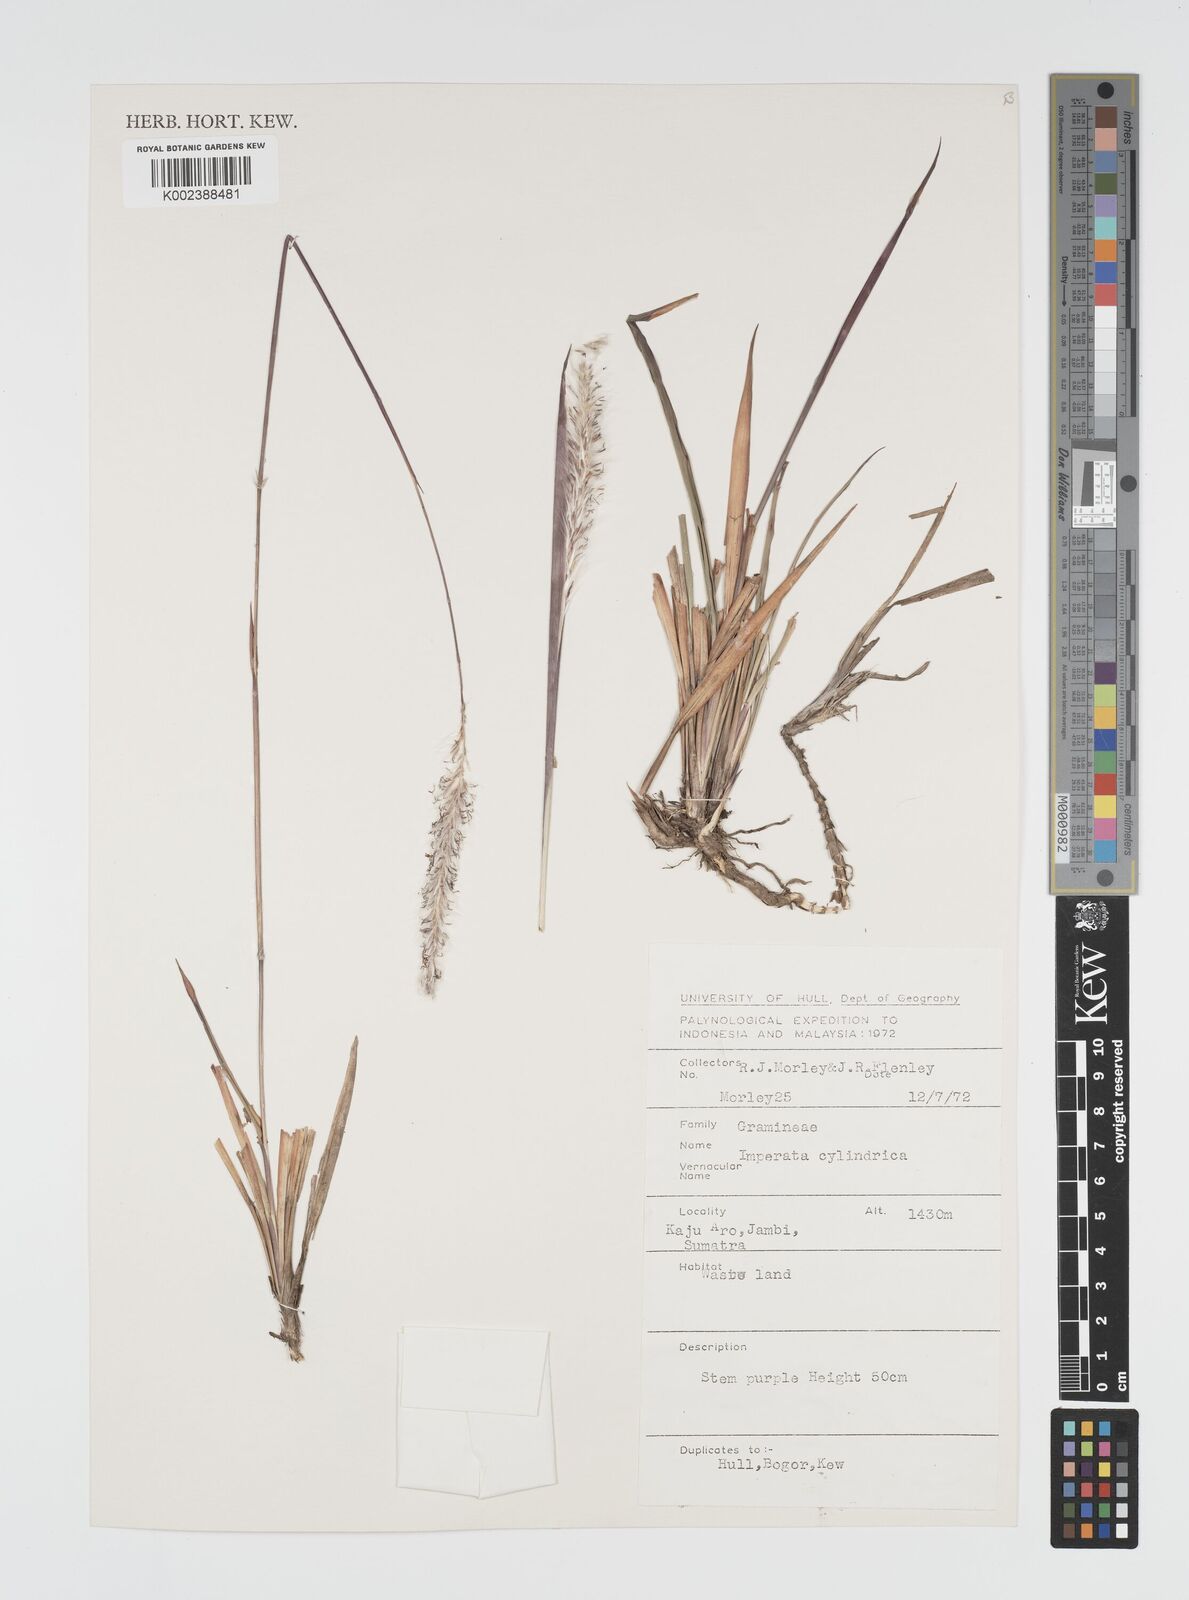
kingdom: Plantae
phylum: Tracheophyta
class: Liliopsida
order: Poales
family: Poaceae
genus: Imperata
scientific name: Imperata cylindrica
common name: Cogongrass
